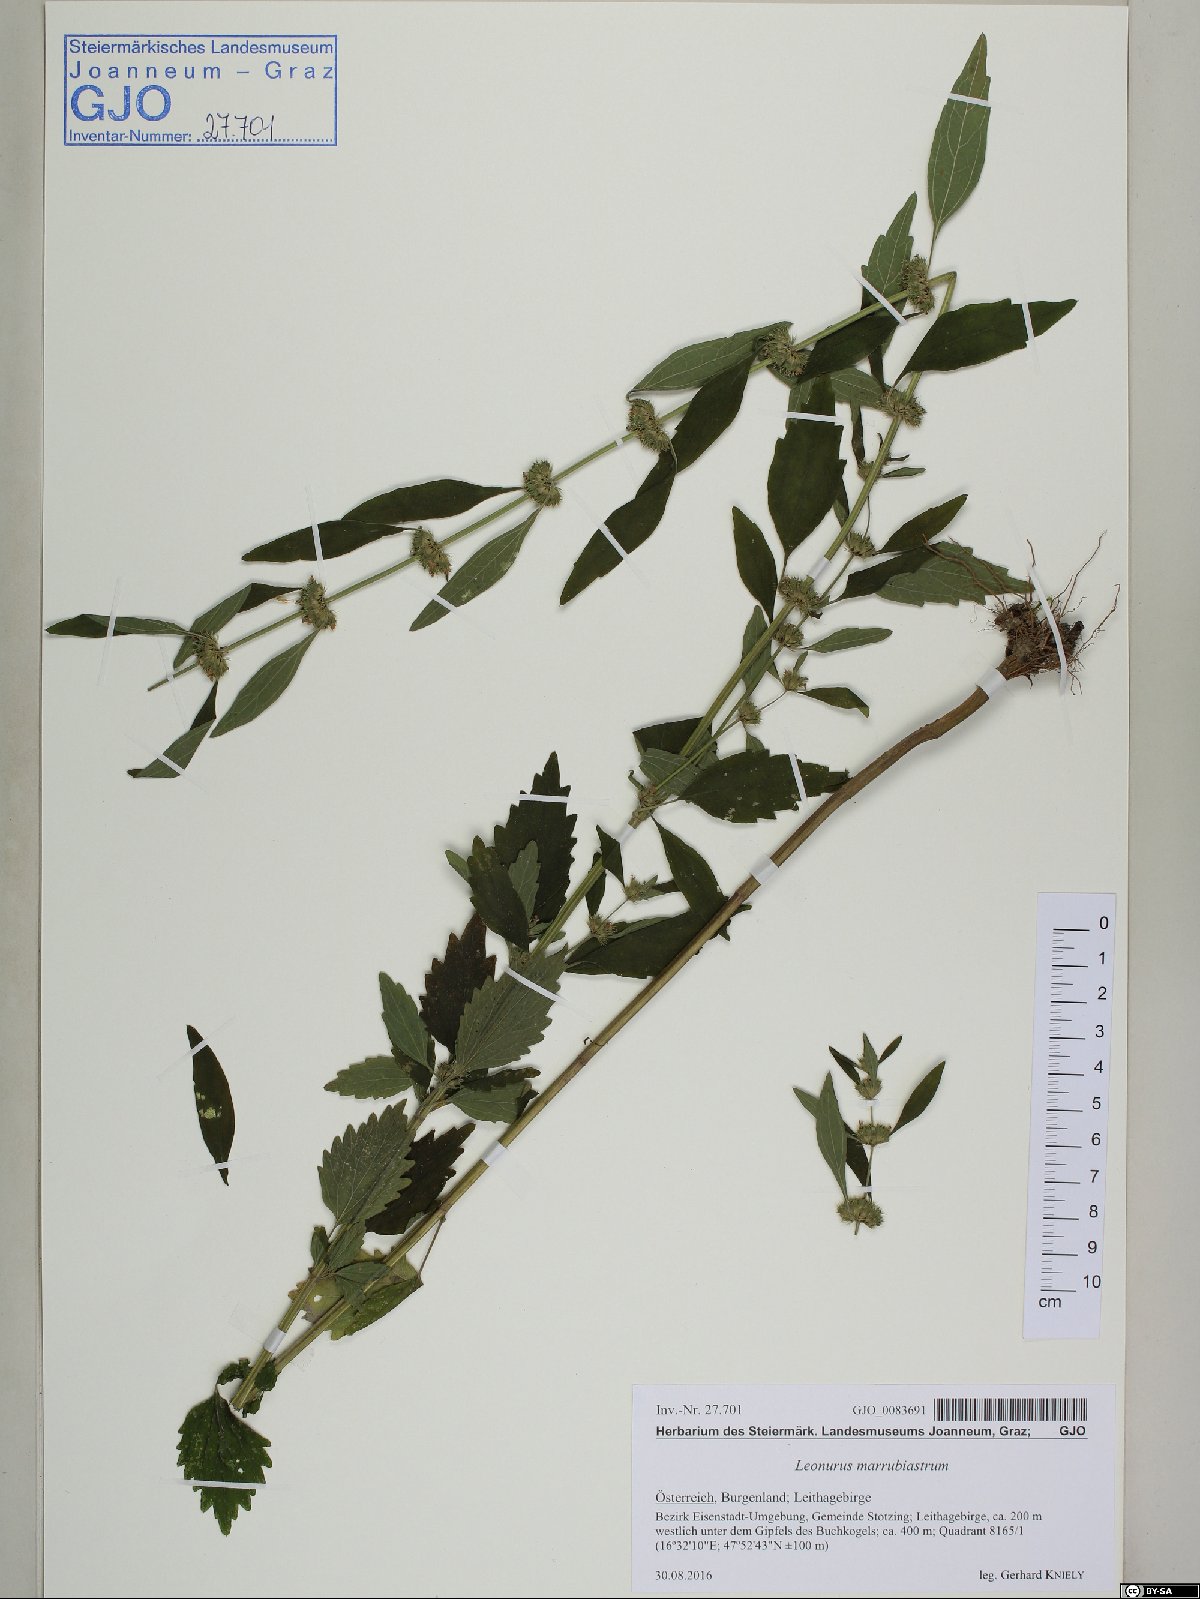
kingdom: Plantae
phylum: Tracheophyta
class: Magnoliopsida
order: Lamiales
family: Lamiaceae
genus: Chaiturus
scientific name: Chaiturus marrubiastrum
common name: Lion's tail
